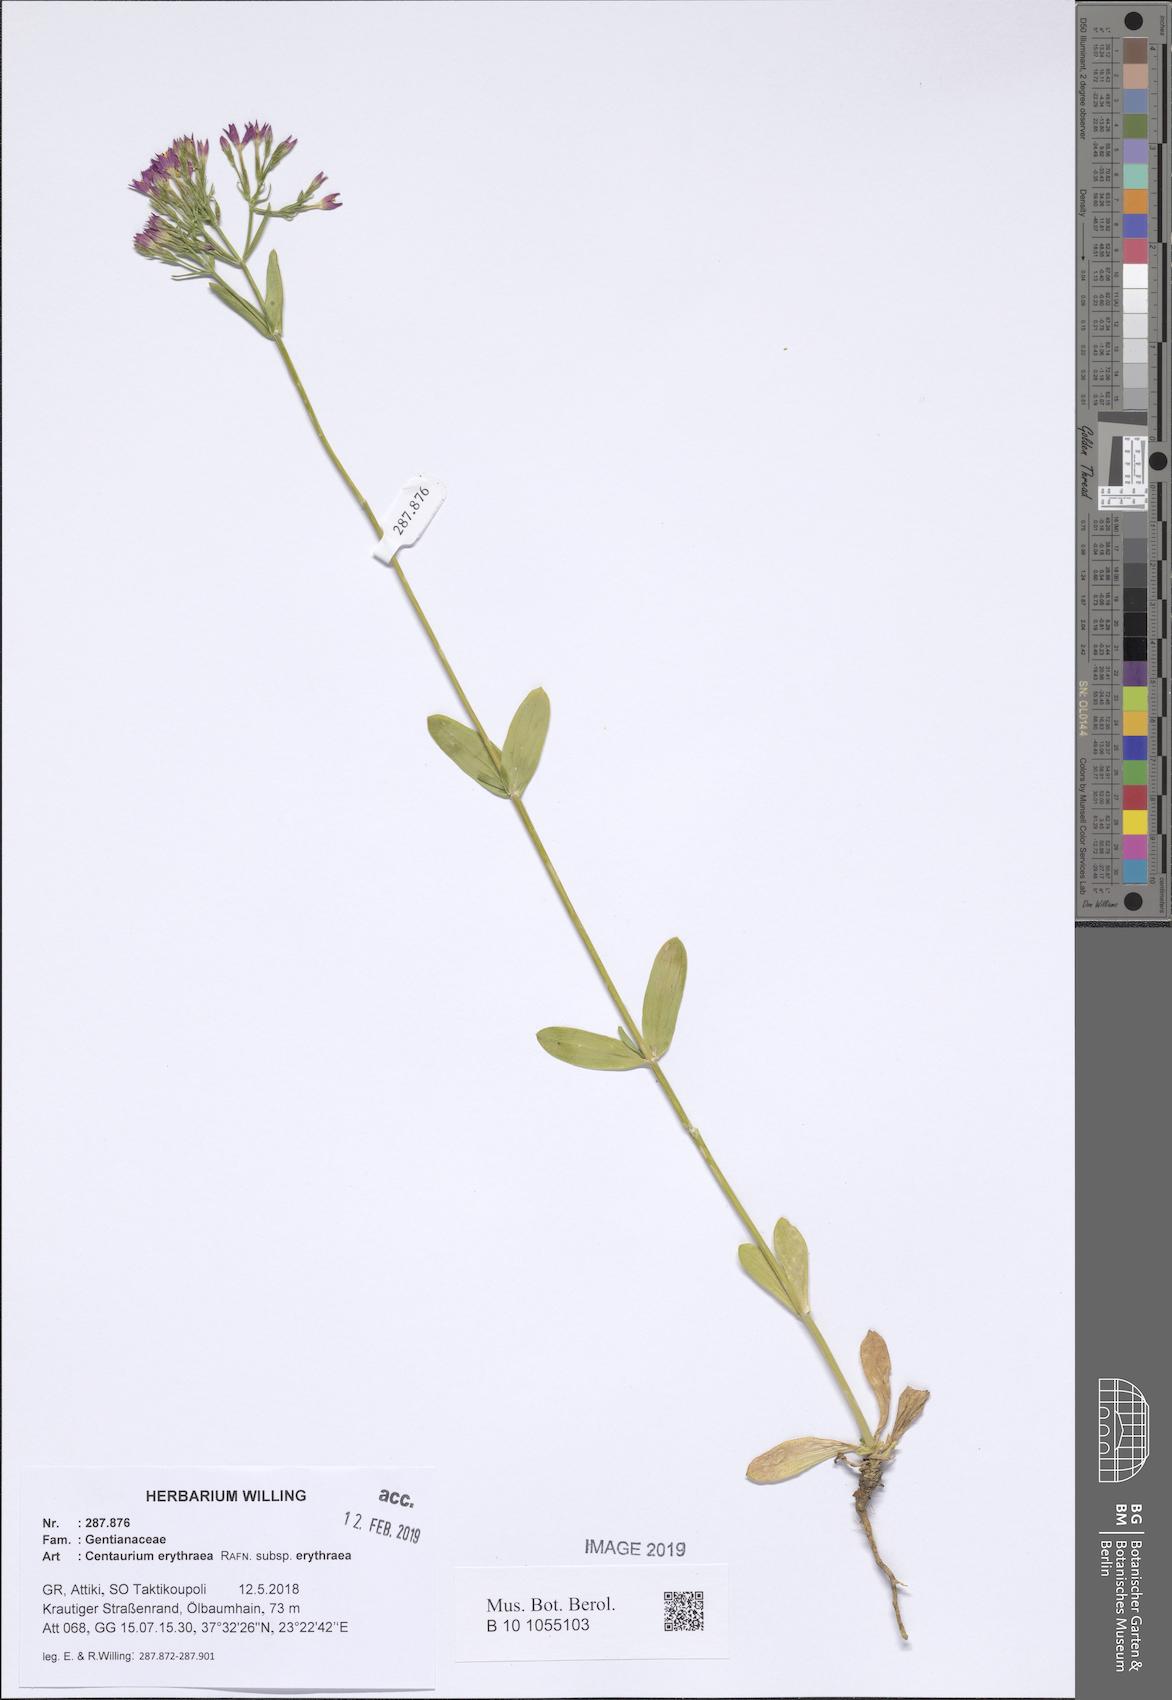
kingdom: Plantae
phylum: Tracheophyta
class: Magnoliopsida
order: Gentianales
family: Gentianaceae
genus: Centaurium
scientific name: Centaurium erythraea
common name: Common centaury
